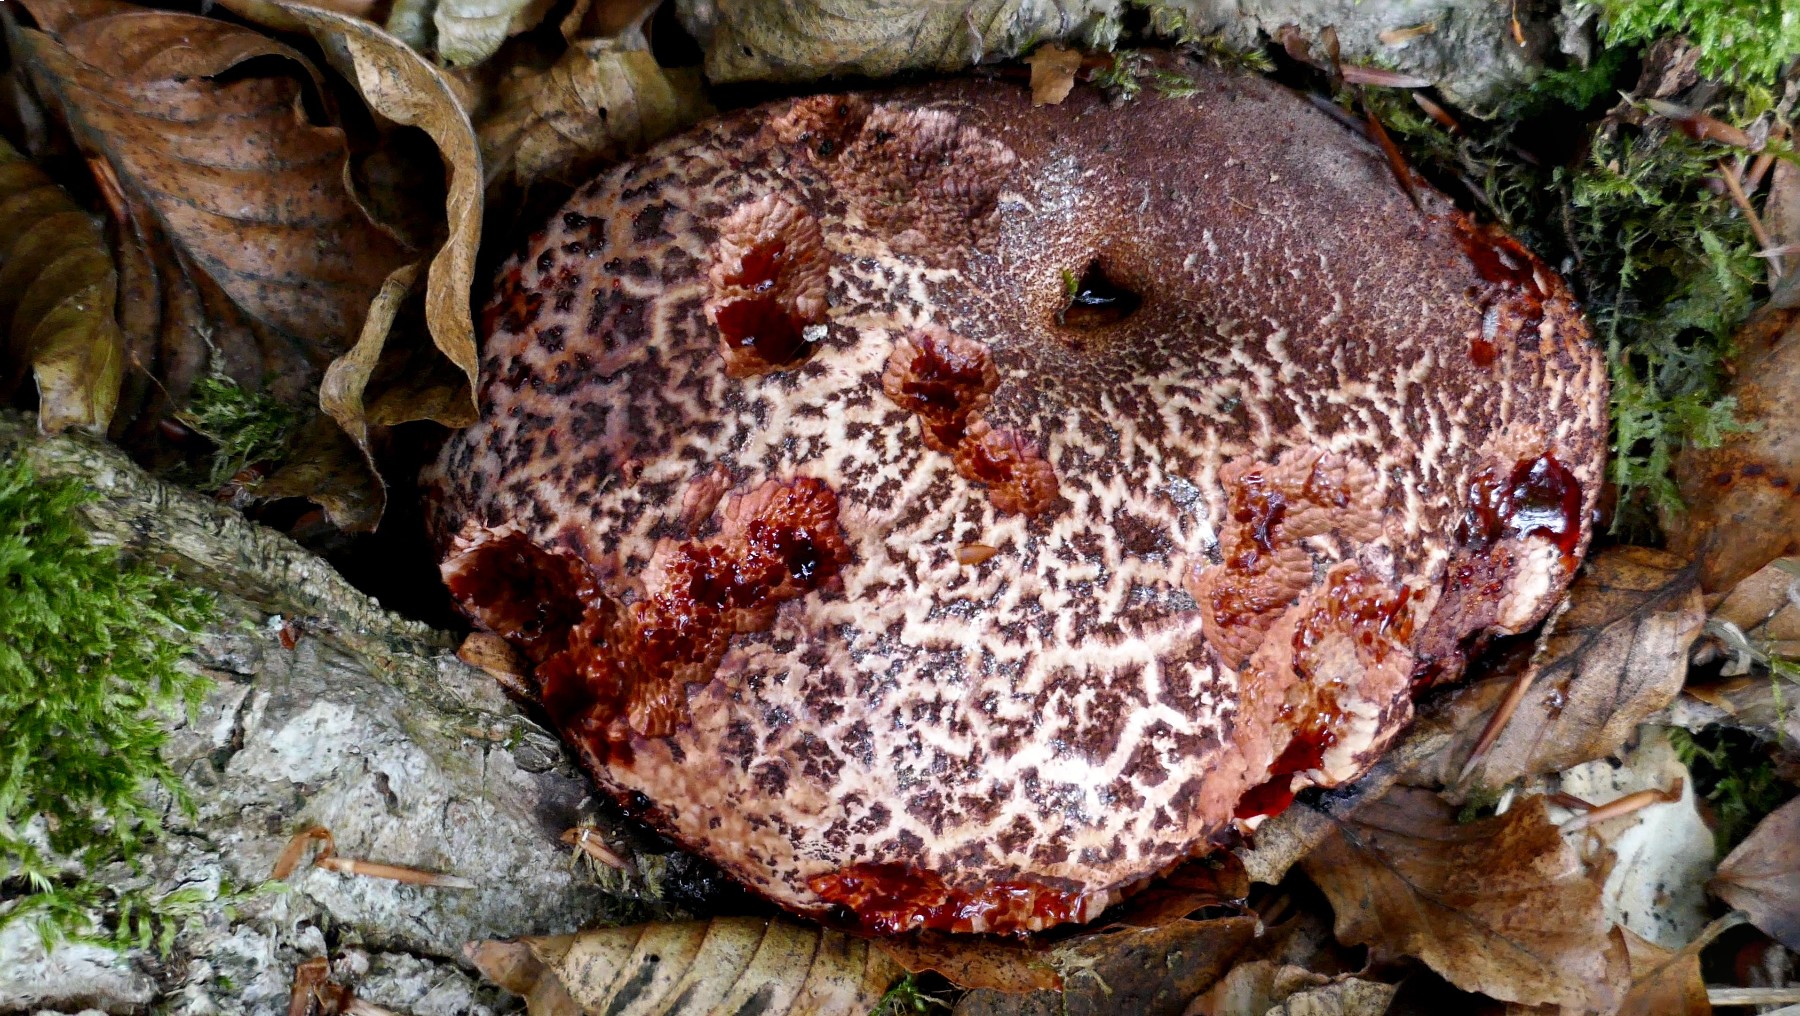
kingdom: Fungi
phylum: Basidiomycota
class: Agaricomycetes
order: Agaricales
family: Fistulinaceae
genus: Fistulina
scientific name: Fistulina hepatica
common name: oksetunge
